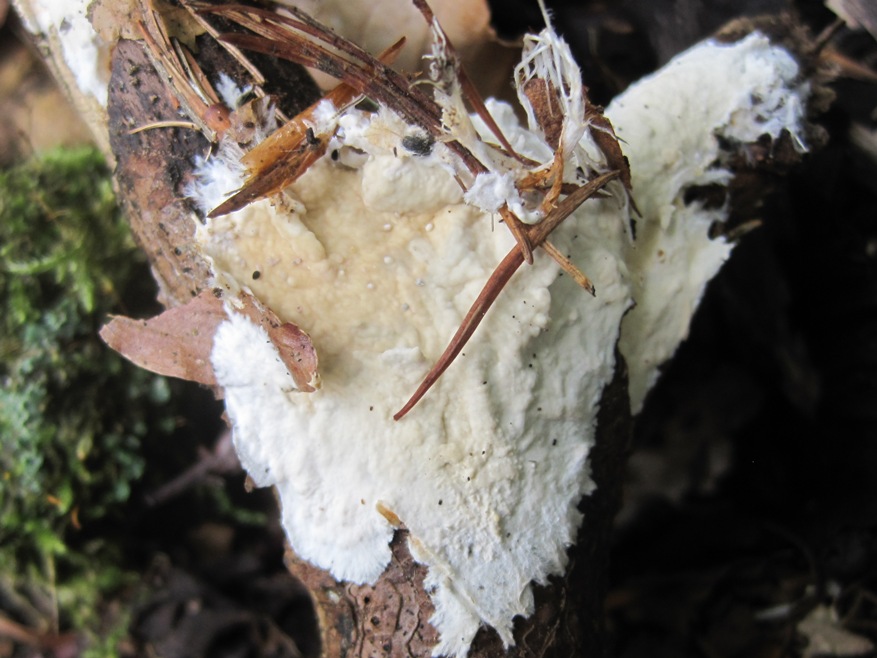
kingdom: Fungi
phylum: Basidiomycota
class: Agaricomycetes
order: Polyporales
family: Phanerochaetaceae
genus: Phanerochaete
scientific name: Phanerochaete laevis
